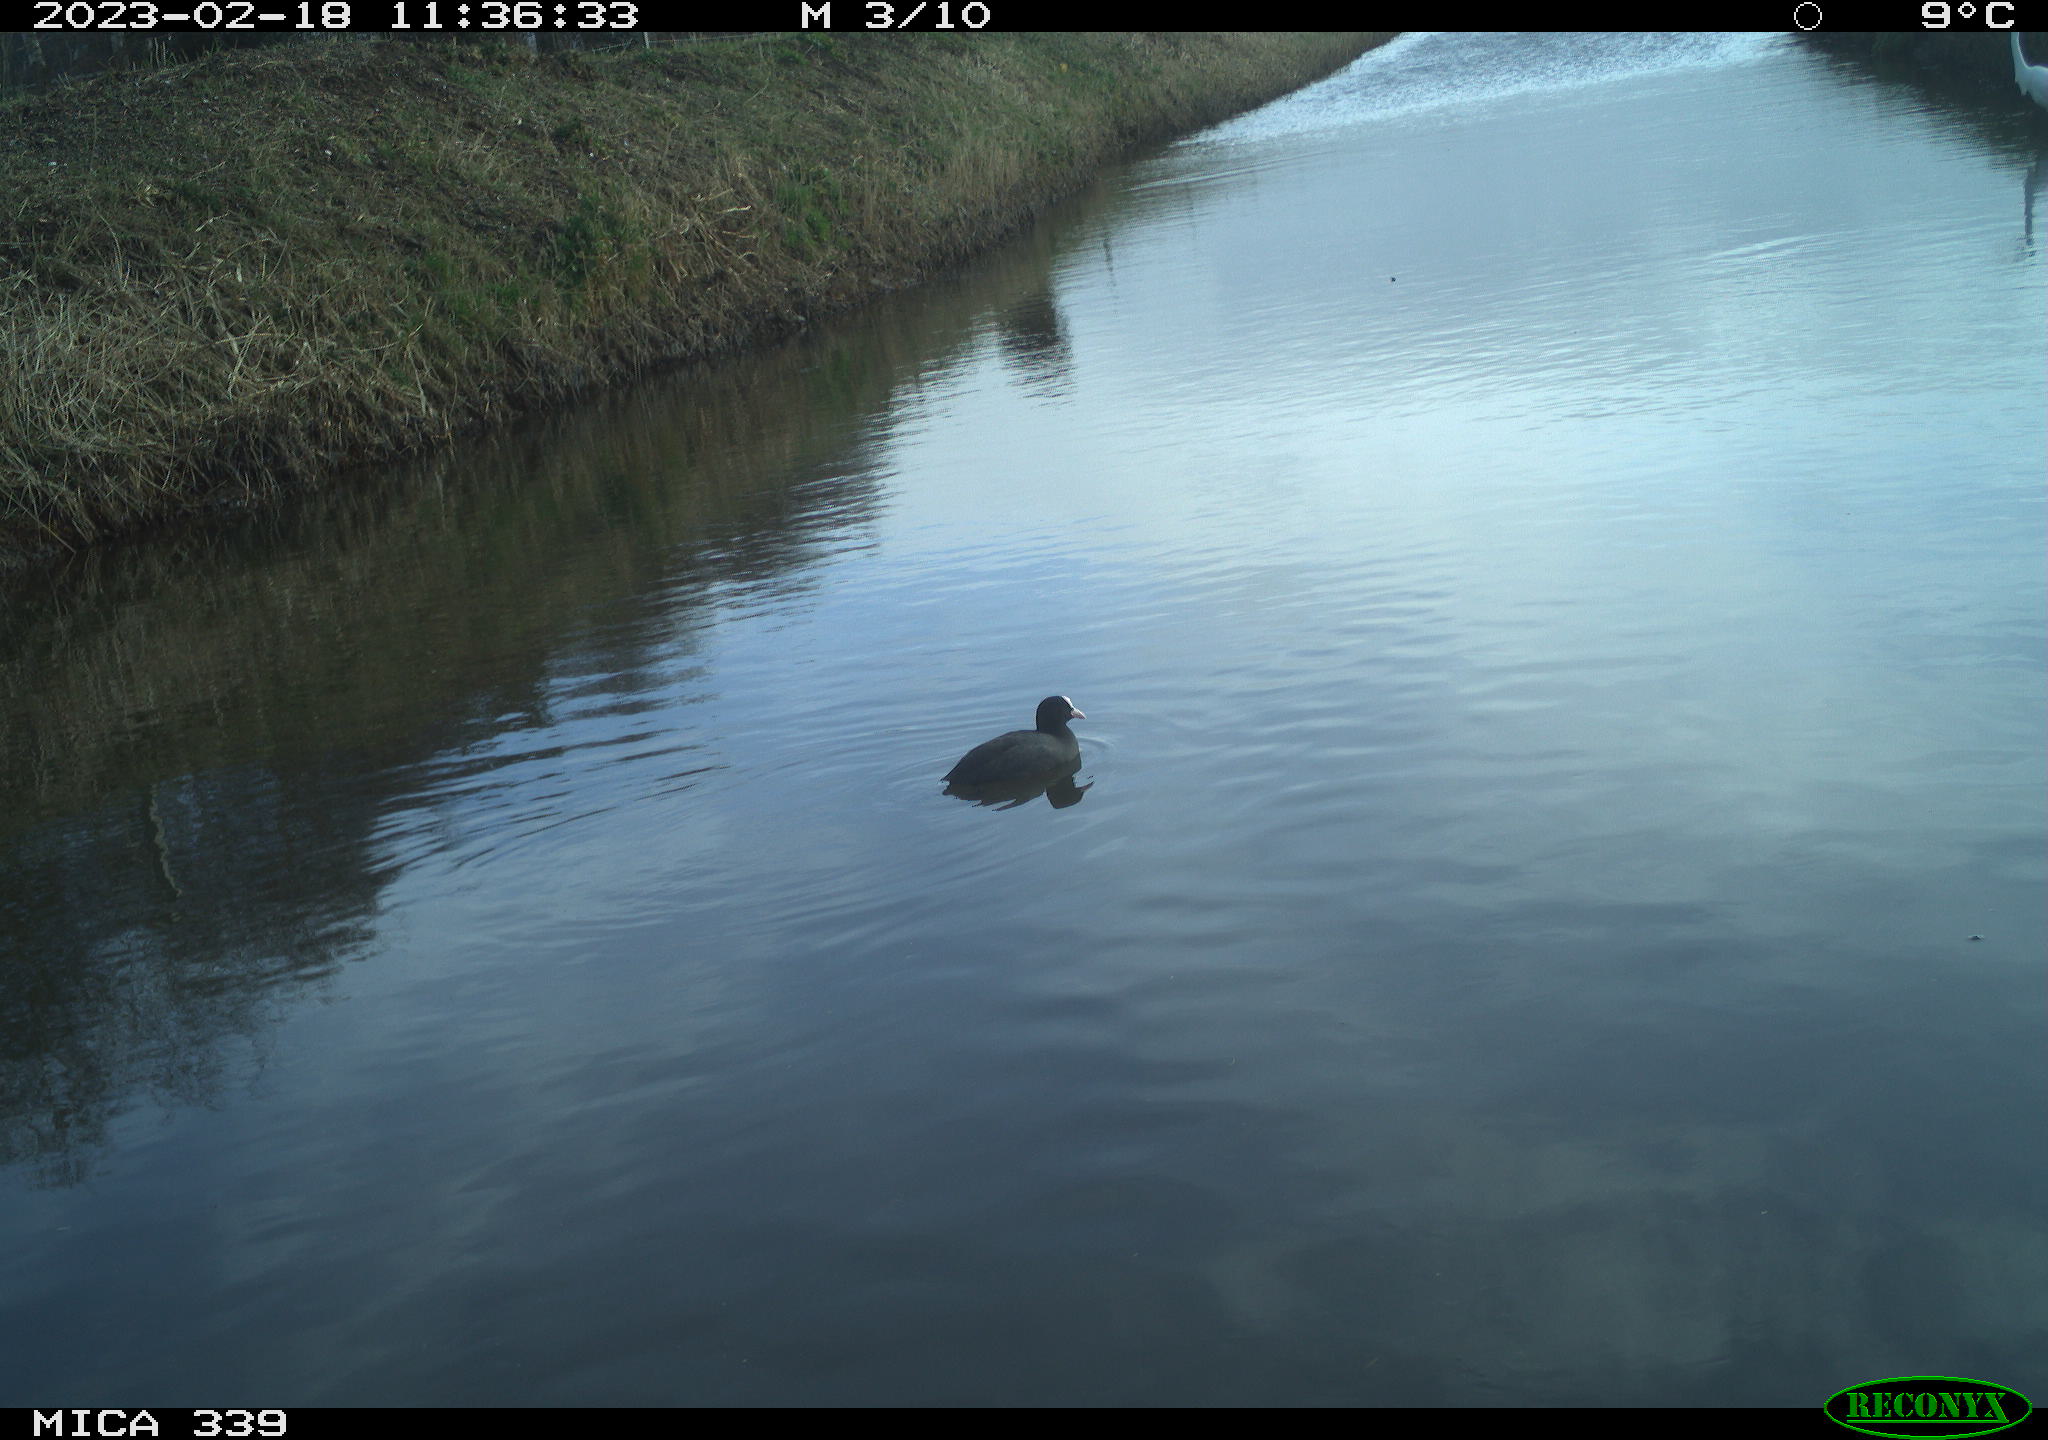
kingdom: Animalia
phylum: Chordata
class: Aves
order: Gruiformes
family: Rallidae
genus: Fulica
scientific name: Fulica atra
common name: Eurasian coot
